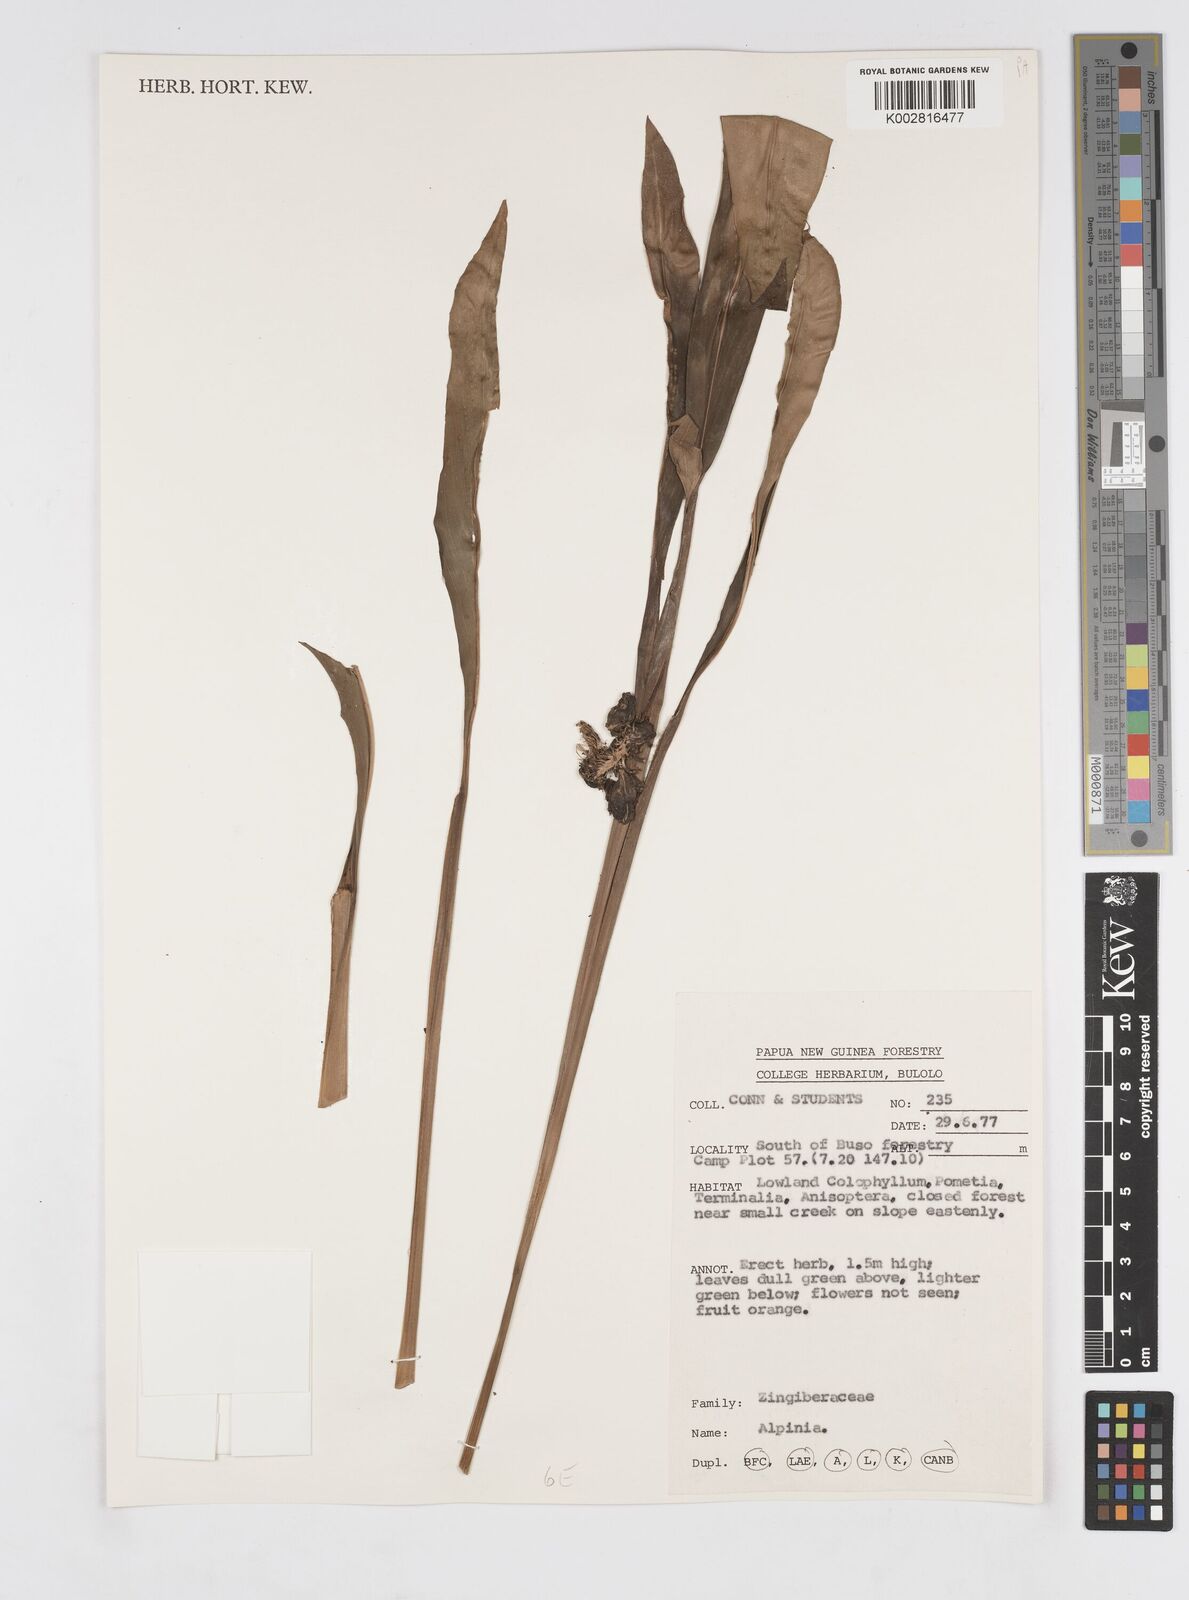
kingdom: Plantae
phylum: Tracheophyta
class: Liliopsida
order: Zingiberales
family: Zingiberaceae
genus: Alpinia
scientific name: Alpinia
